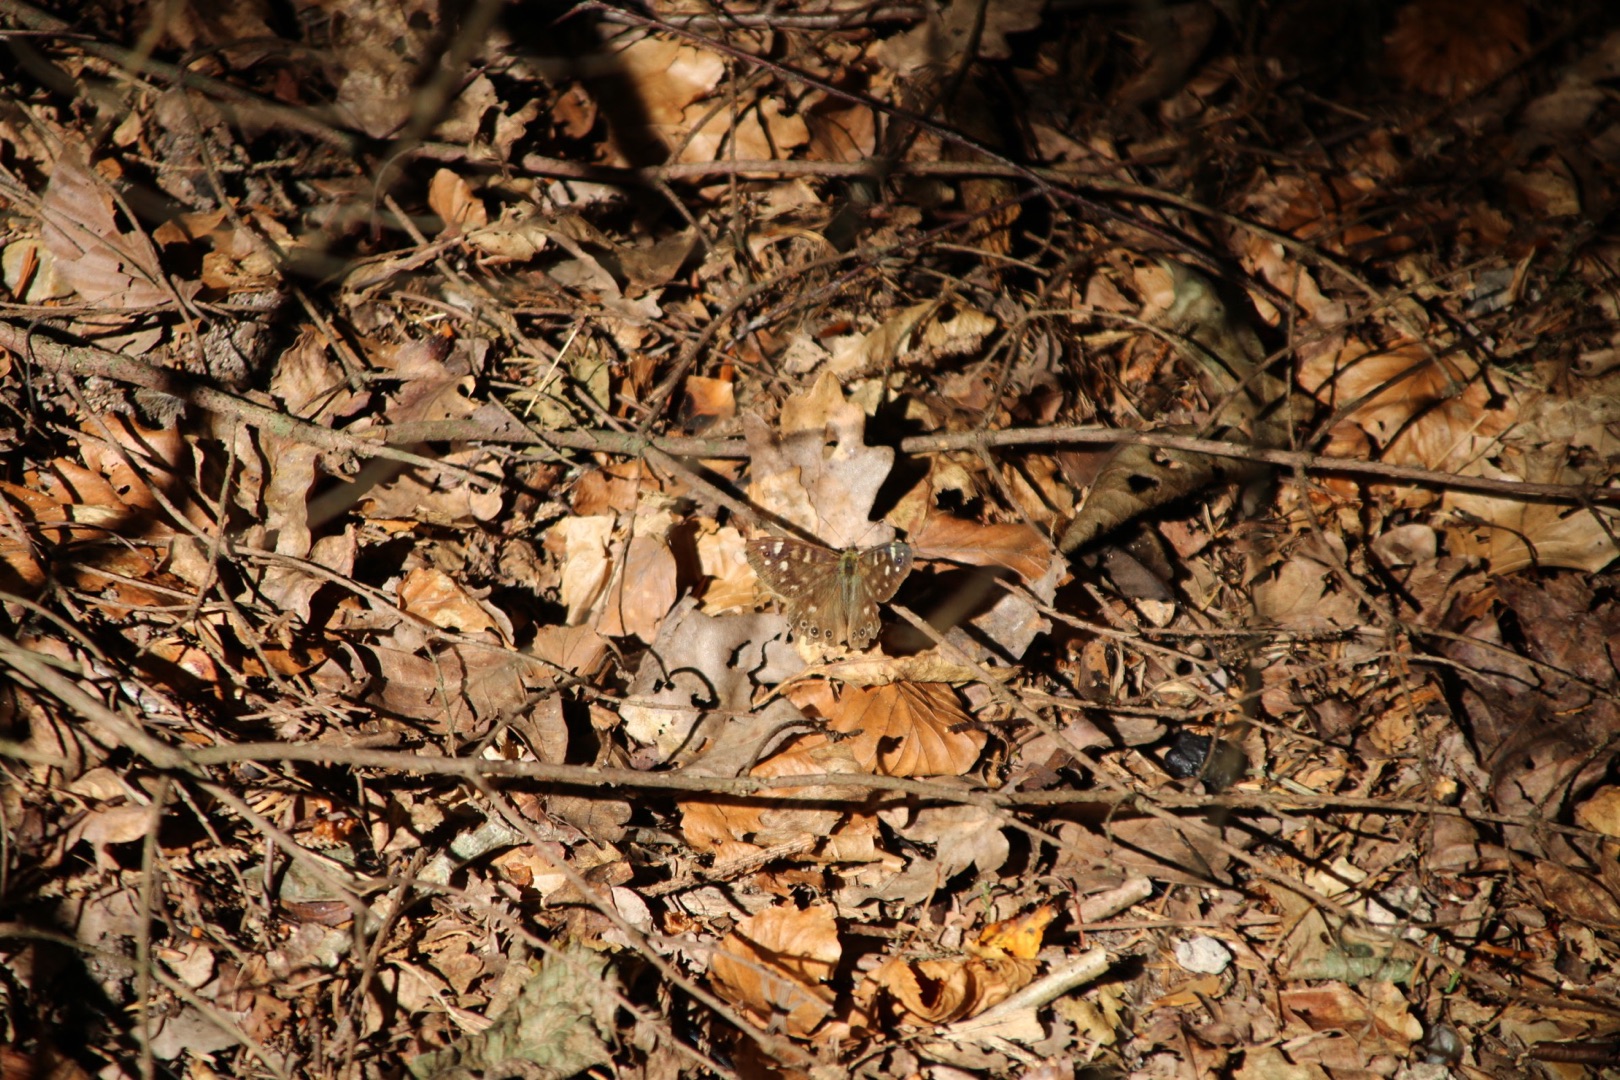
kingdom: Animalia
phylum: Arthropoda
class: Insecta
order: Lepidoptera
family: Nymphalidae
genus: Pararge
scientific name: Pararge aegeria
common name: Skovrandøje
